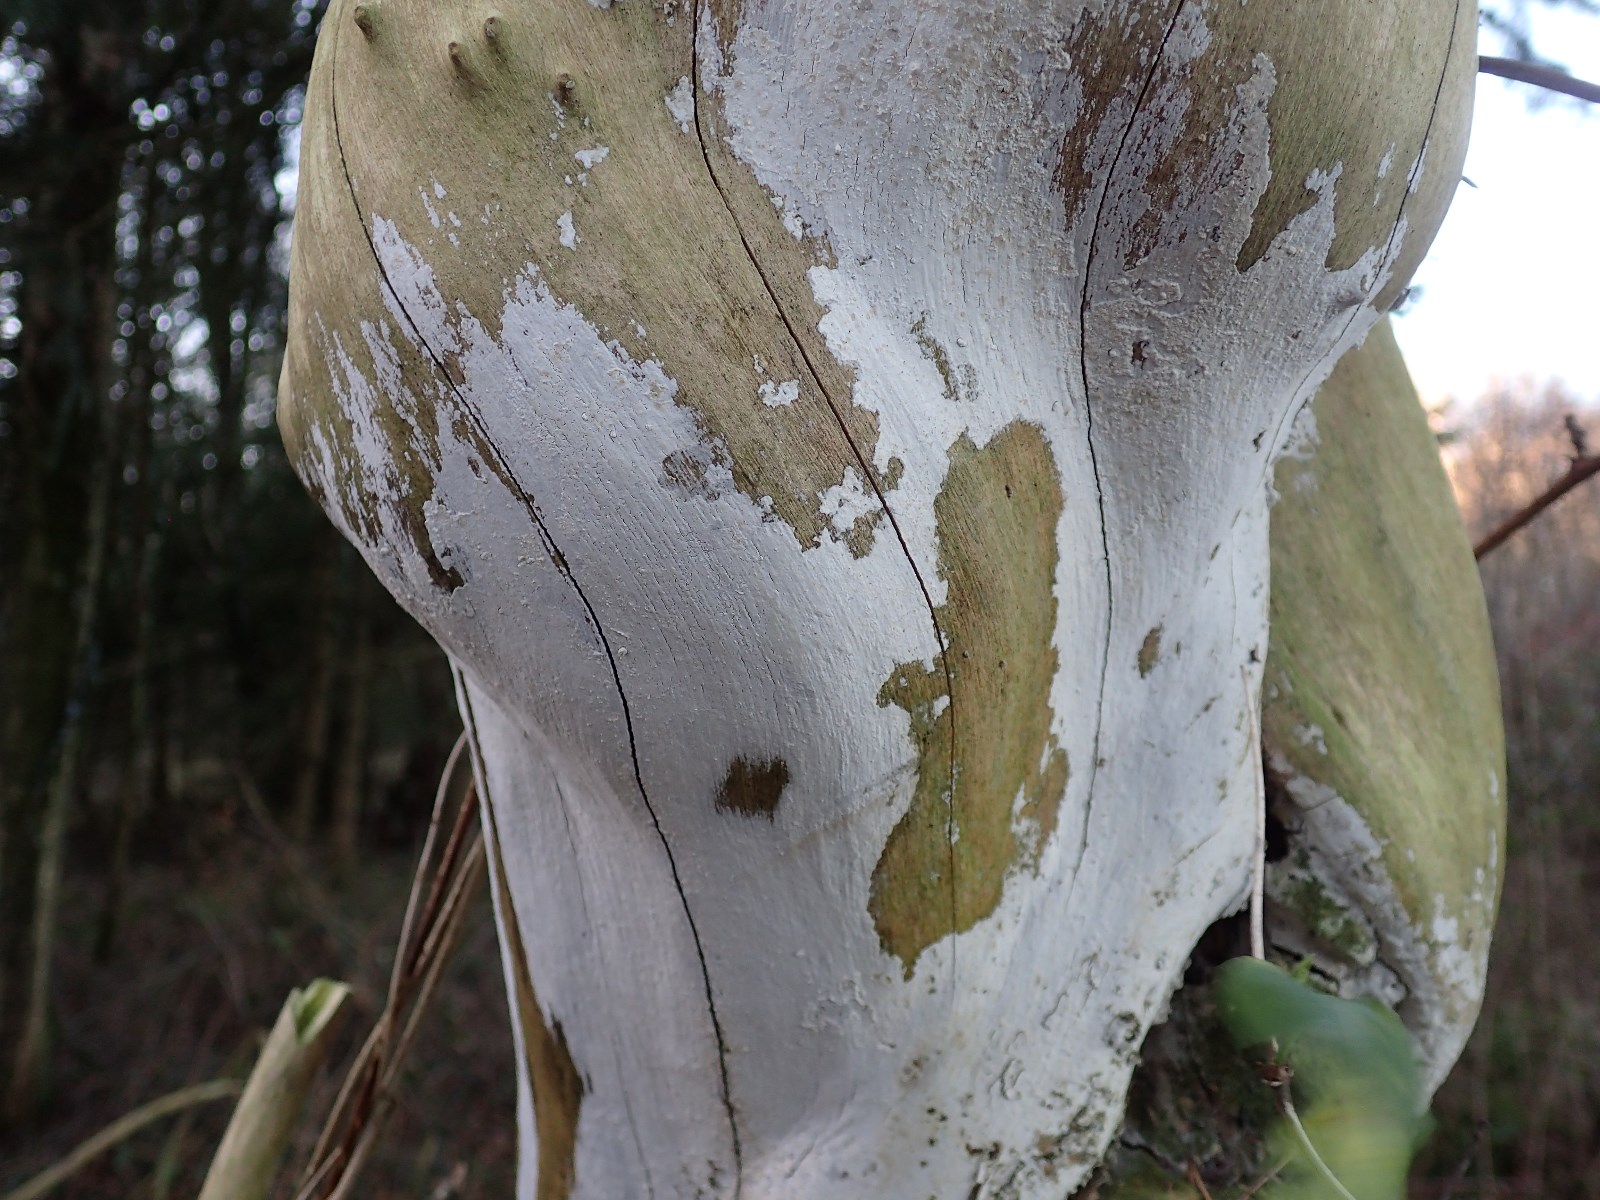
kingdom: Fungi
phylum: Basidiomycota
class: Agaricomycetes
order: Corticiales
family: Corticiaceae
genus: Lyomyces
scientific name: Lyomyces sambuci
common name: almindelig hyldehinde
